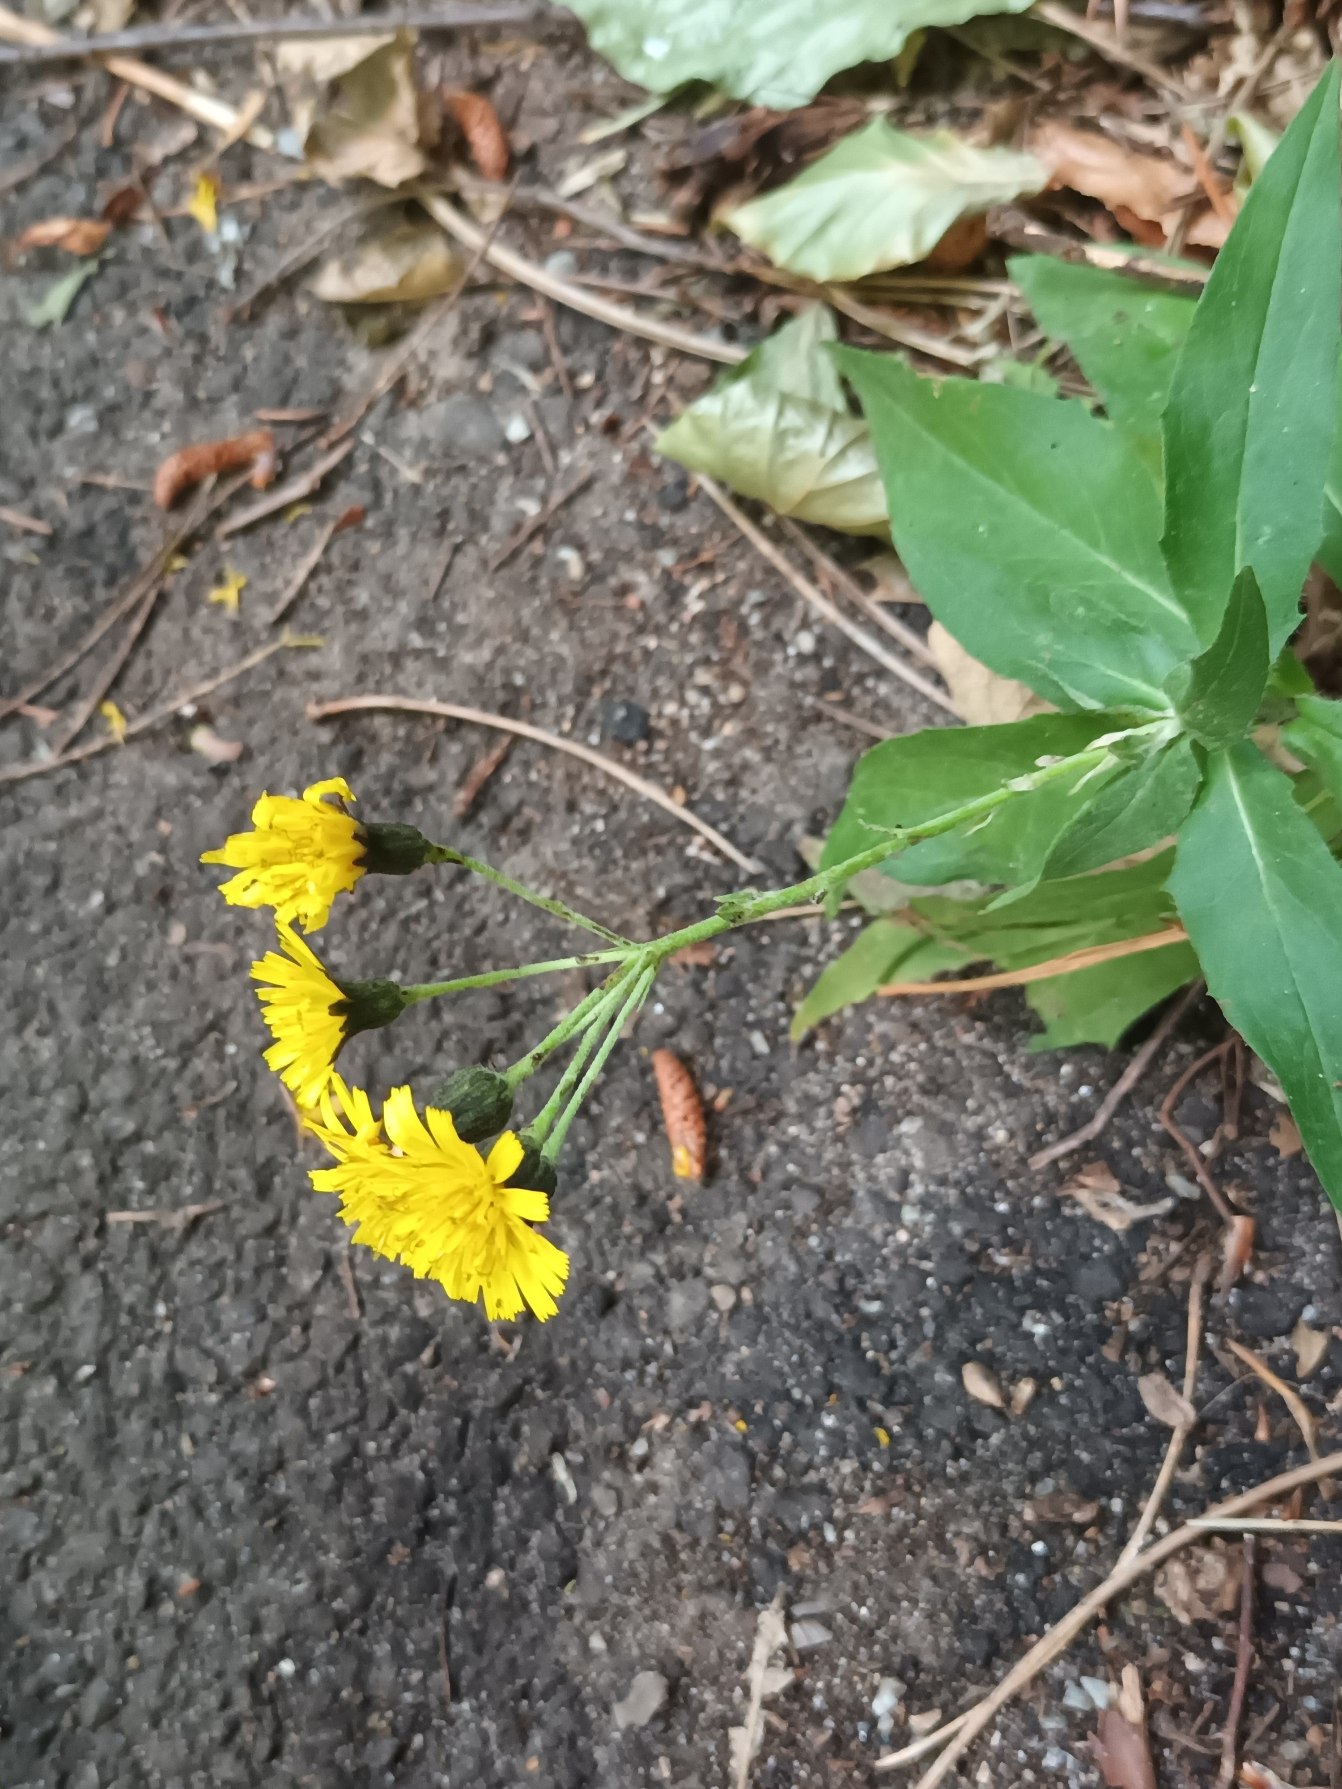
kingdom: Plantae
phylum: Tracheophyta
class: Magnoliopsida
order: Asterales
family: Asteraceae
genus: Hieracium
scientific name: Hieracium sabaudum
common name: Bredbladet høgeurt
